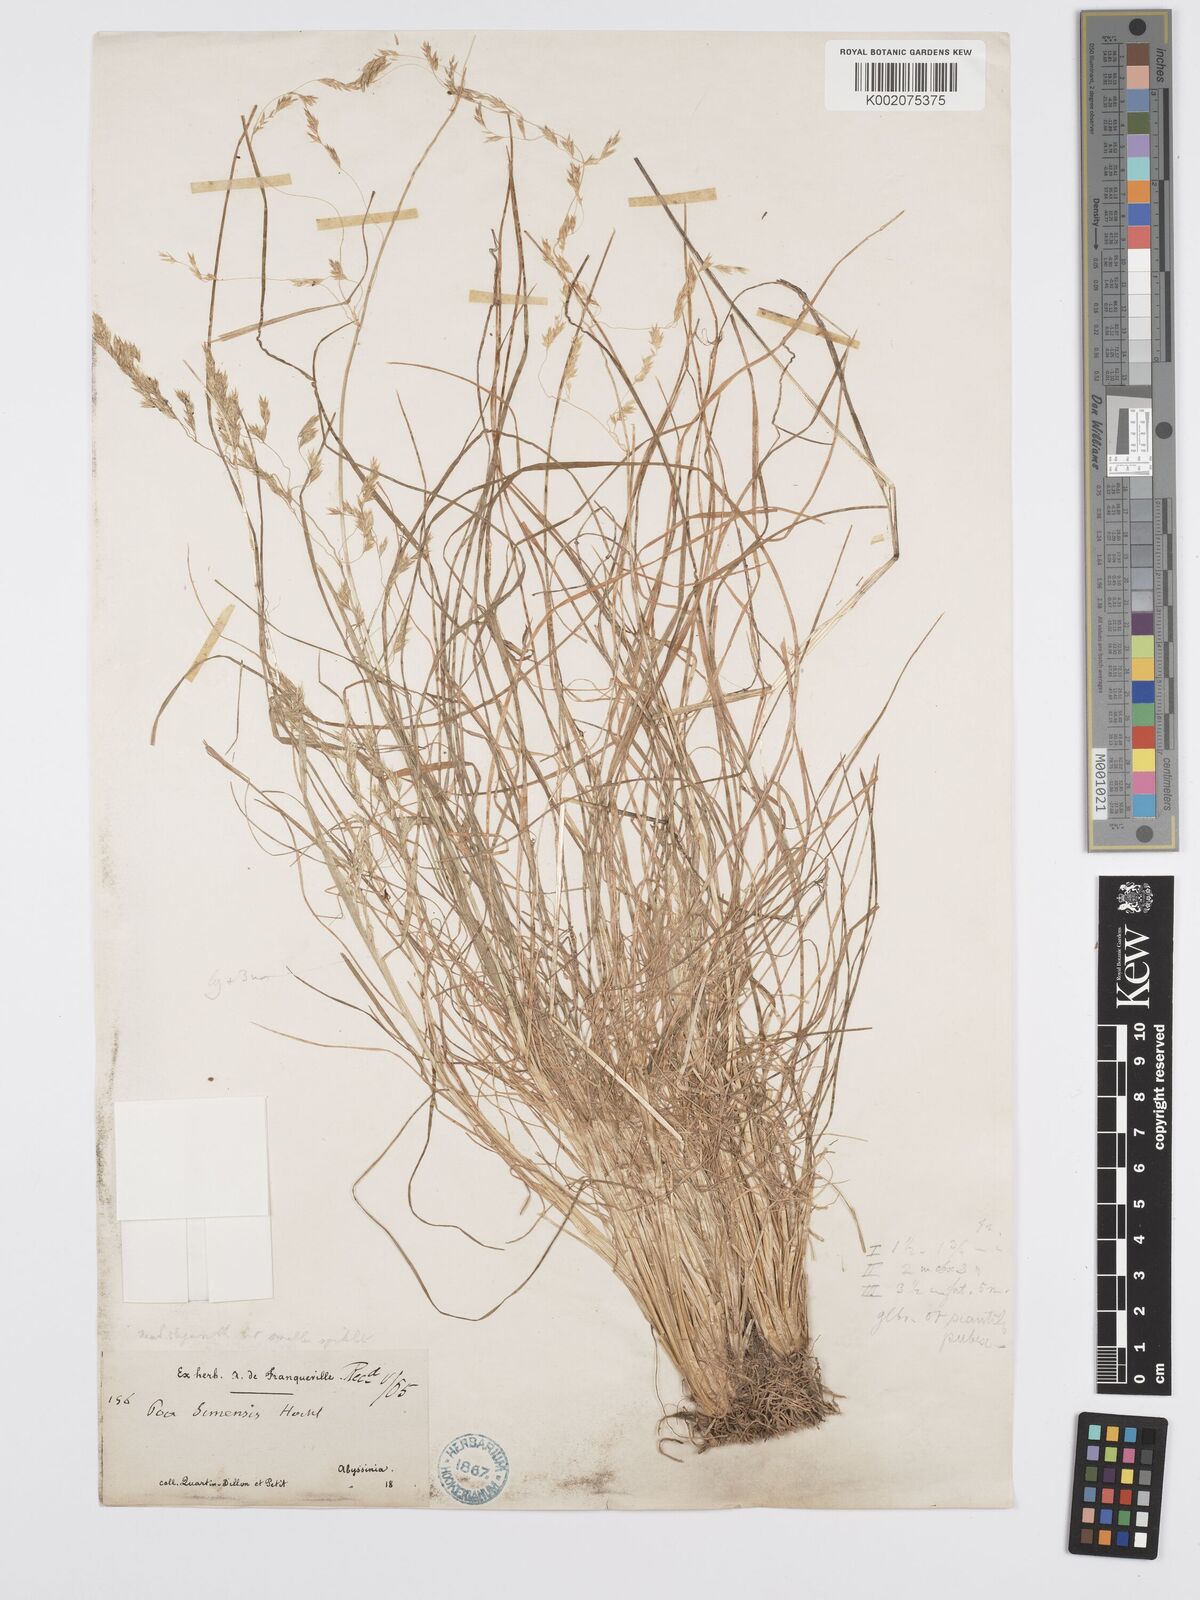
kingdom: Plantae
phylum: Tracheophyta
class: Liliopsida
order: Poales
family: Poaceae
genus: Poa
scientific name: Poa simensis
